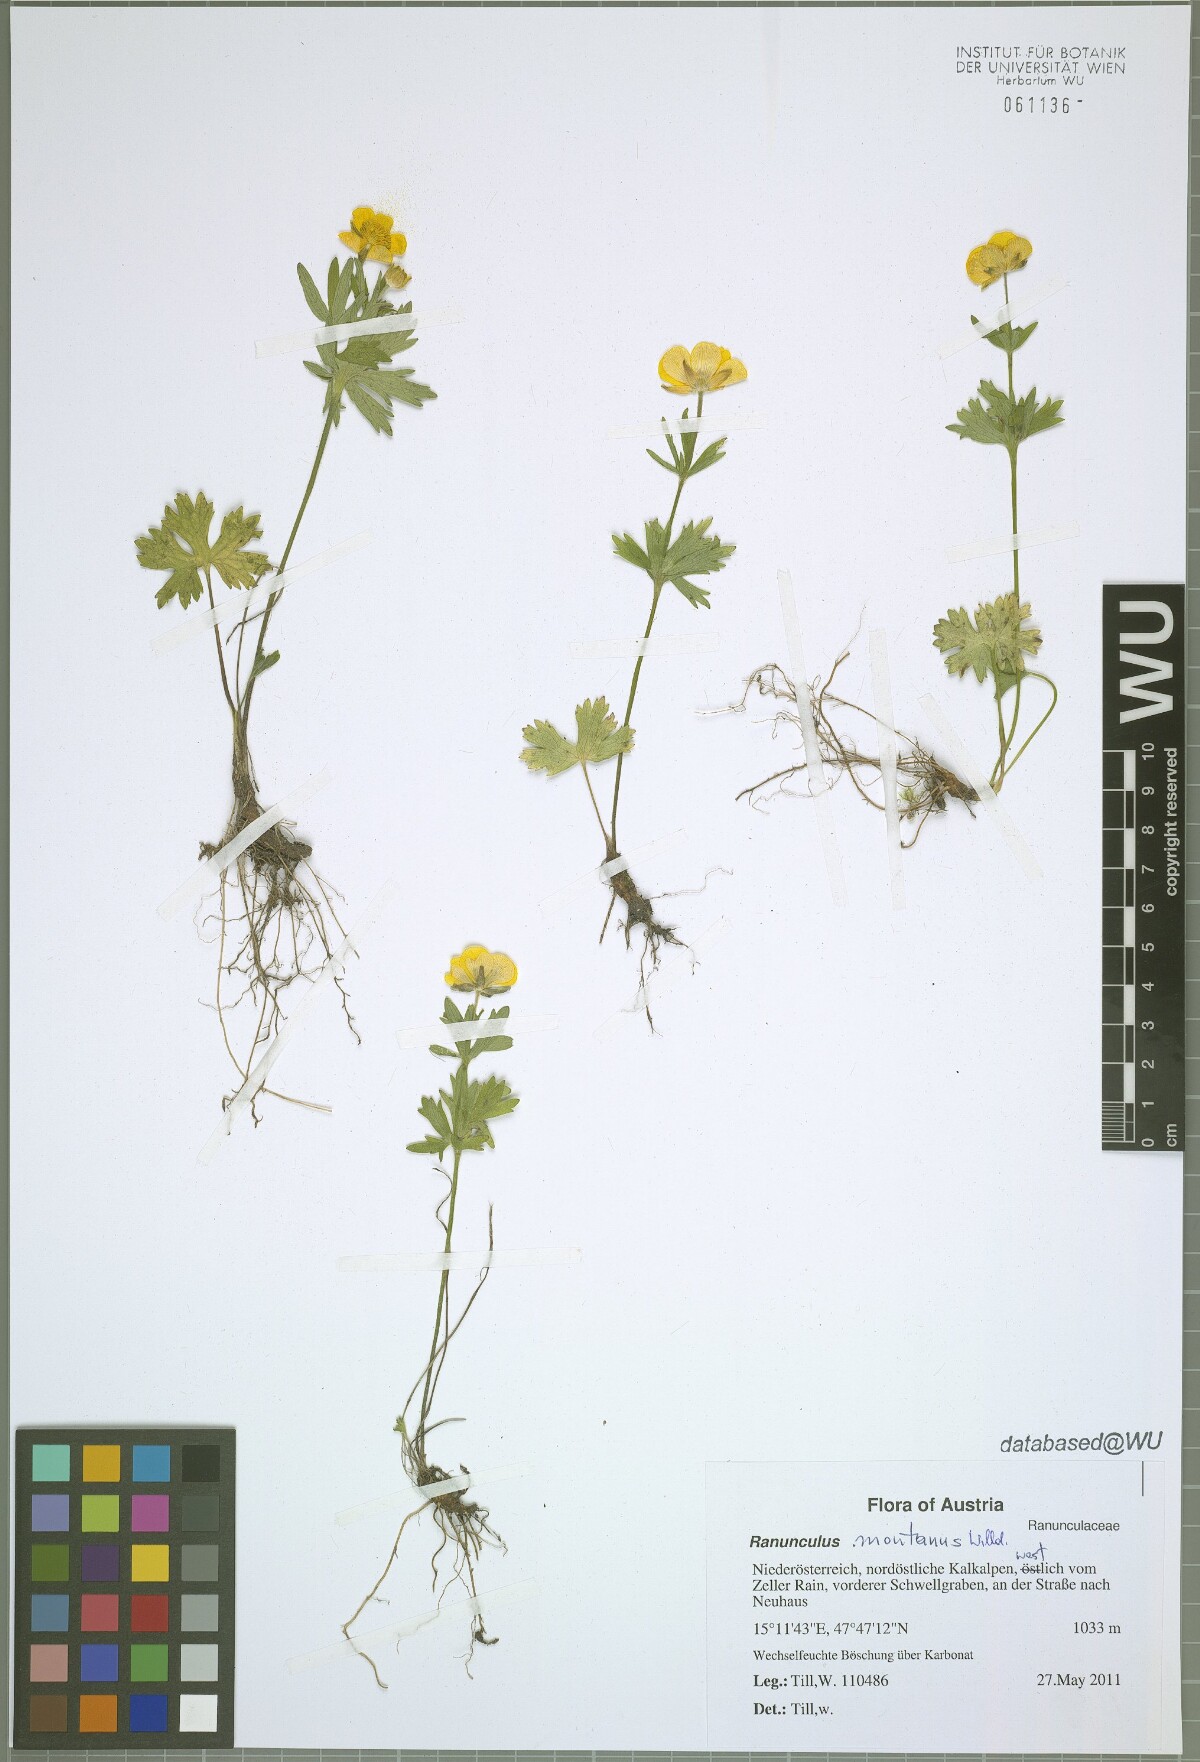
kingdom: Plantae
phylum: Tracheophyta
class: Magnoliopsida
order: Ranunculales
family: Ranunculaceae
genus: Ranunculus
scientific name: Ranunculus montanus
